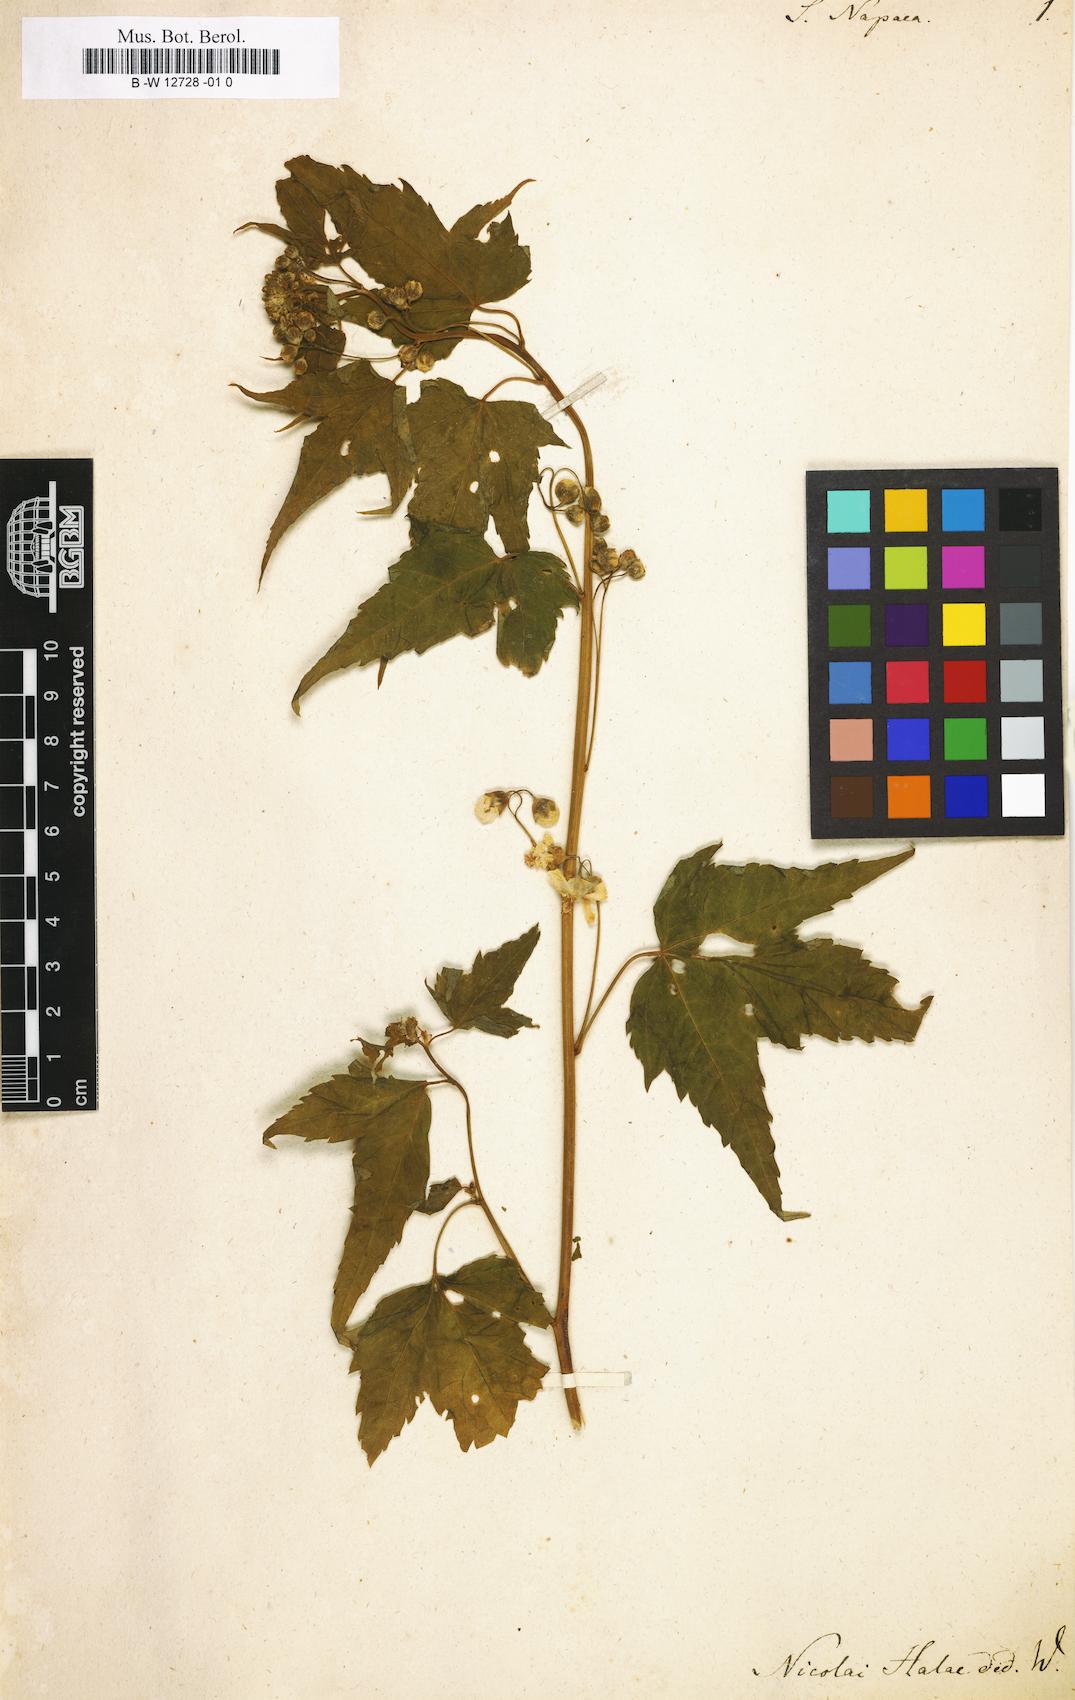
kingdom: Plantae
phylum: Tracheophyta
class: Magnoliopsida
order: Malvales
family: Malvaceae
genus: Ripariosida
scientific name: Ripariosida hermaphrodita
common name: Virginia fanpetals
